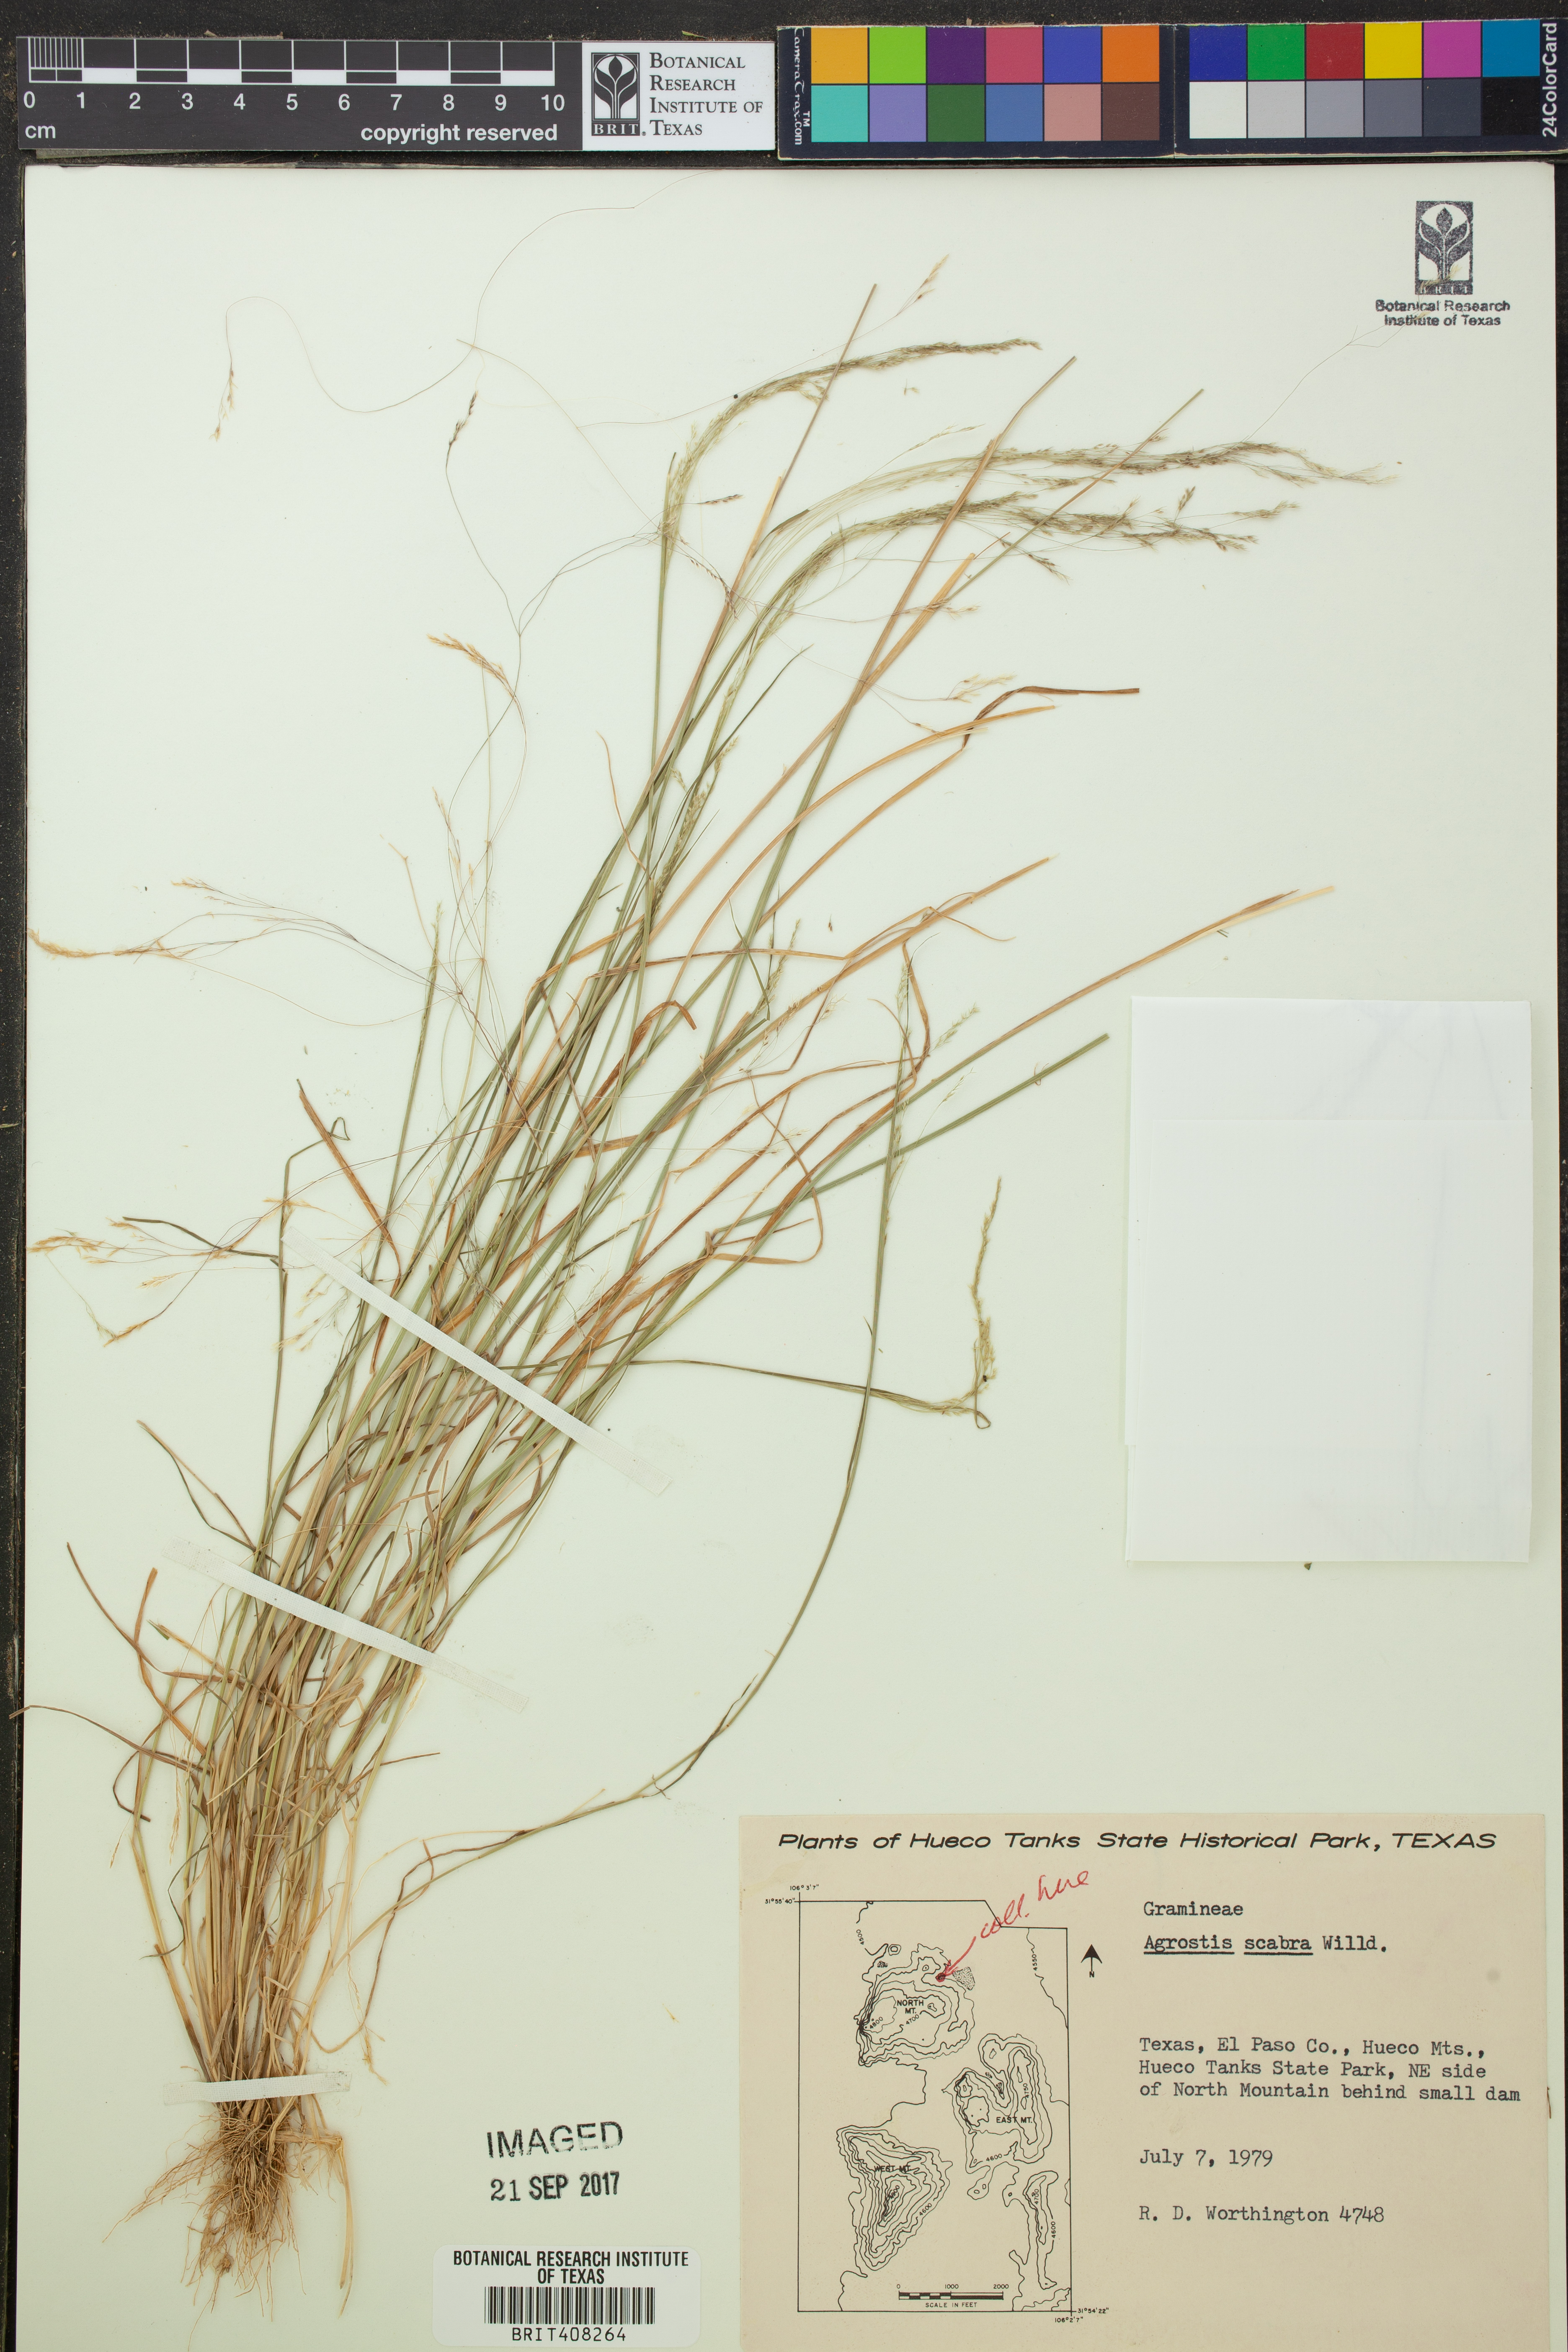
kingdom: Plantae
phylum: Tracheophyta
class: Liliopsida
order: Poales
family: Poaceae
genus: Agrostis
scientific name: Agrostis scabra
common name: Rough bent
